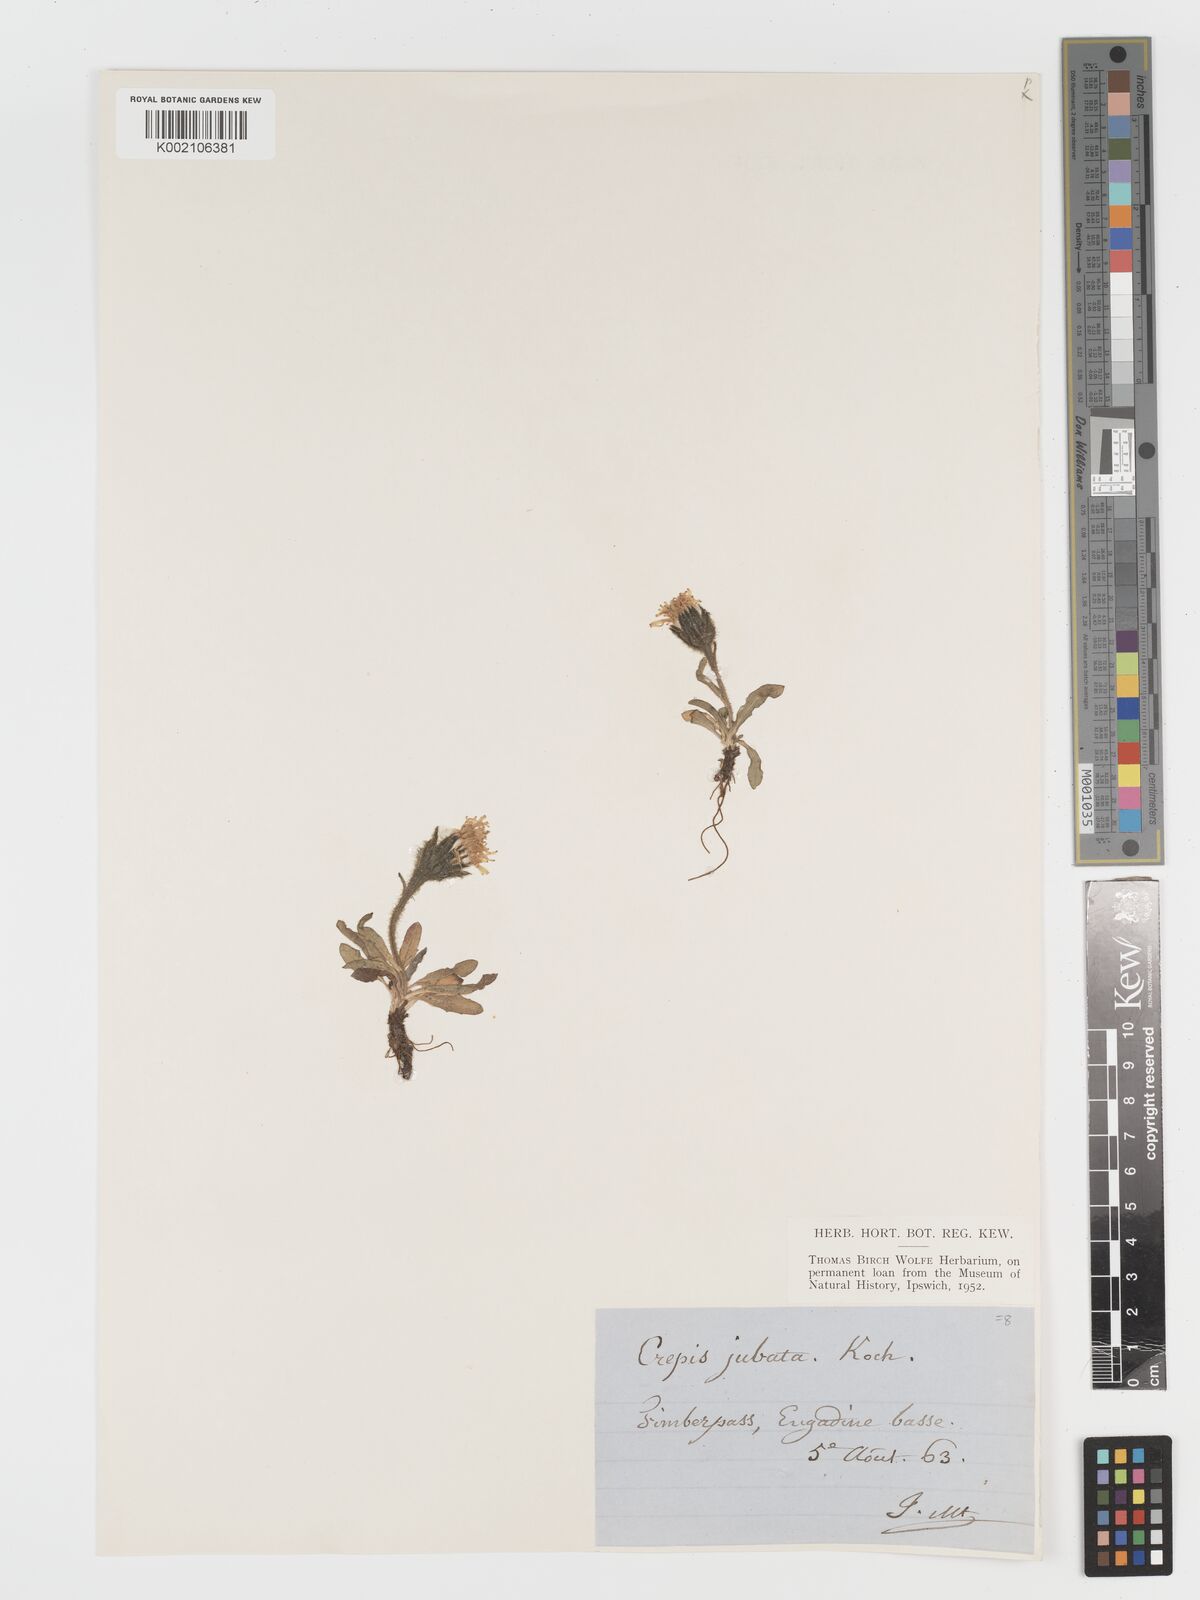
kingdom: Plantae
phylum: Tracheophyta
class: Magnoliopsida
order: Asterales
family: Asteraceae
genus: Crepis
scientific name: Crepis rhaetica
